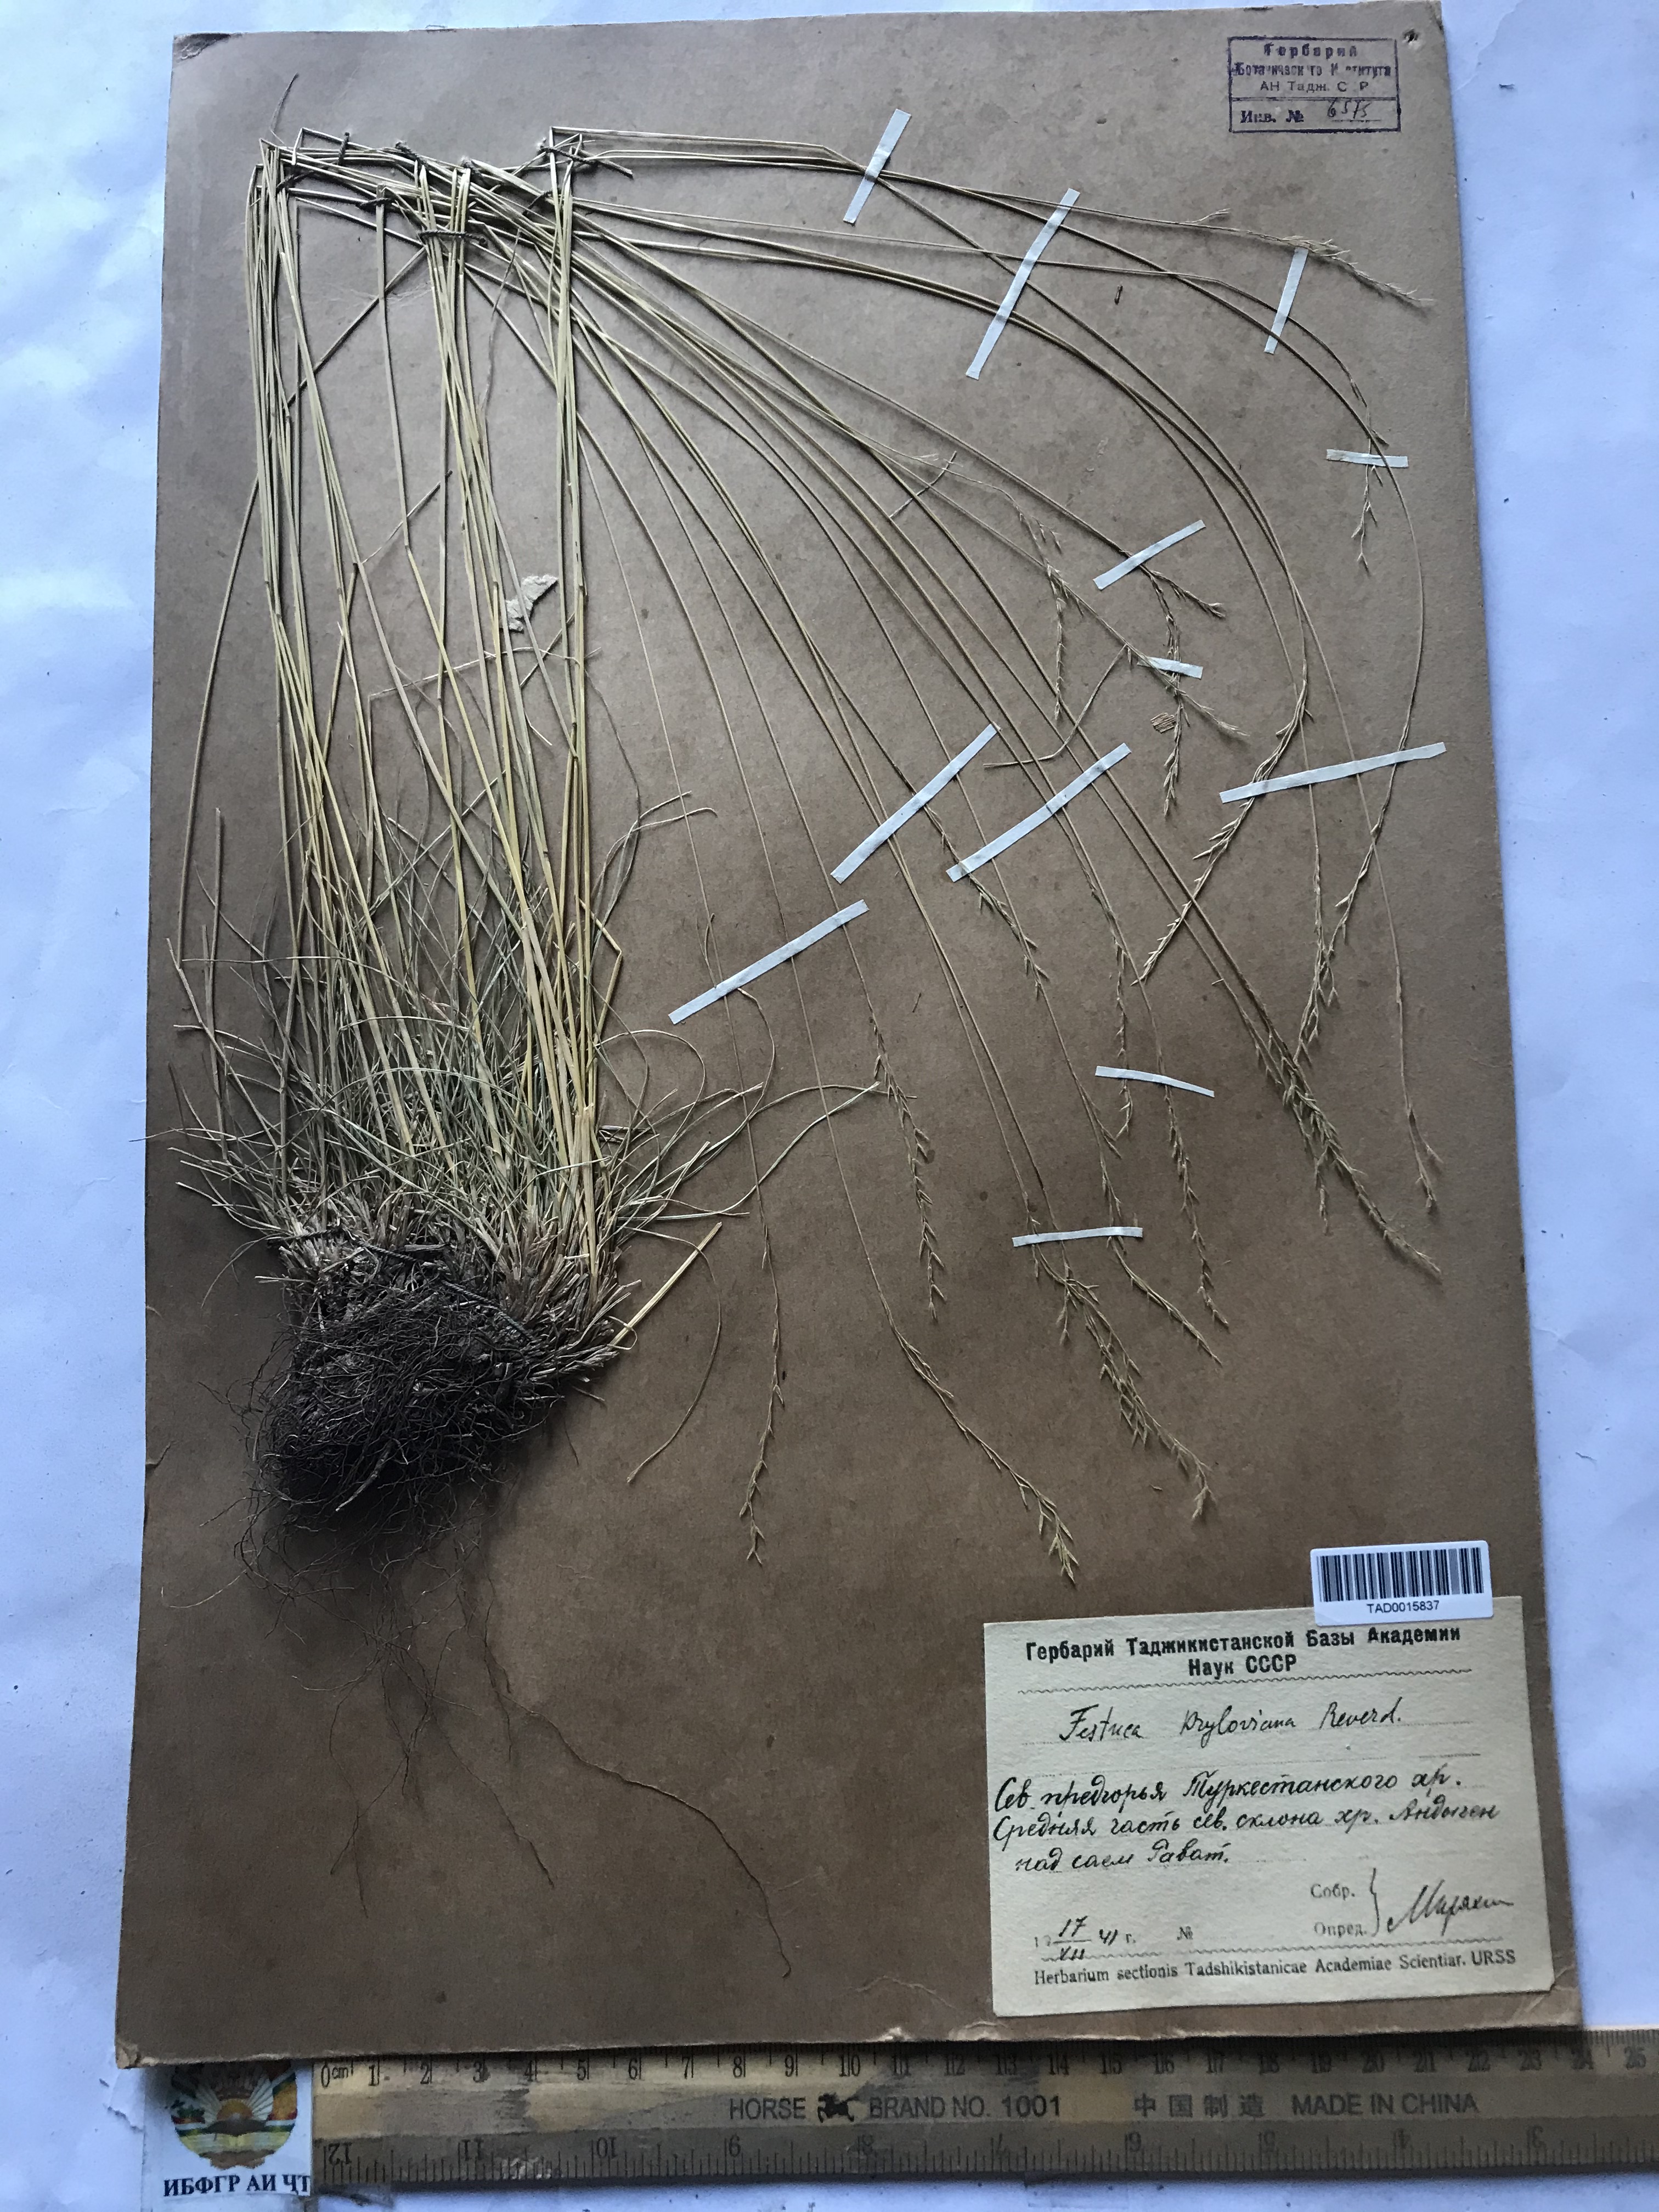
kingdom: Plantae
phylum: Tracheophyta
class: Liliopsida
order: Poales
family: Poaceae
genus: Festuca
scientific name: Festuca
